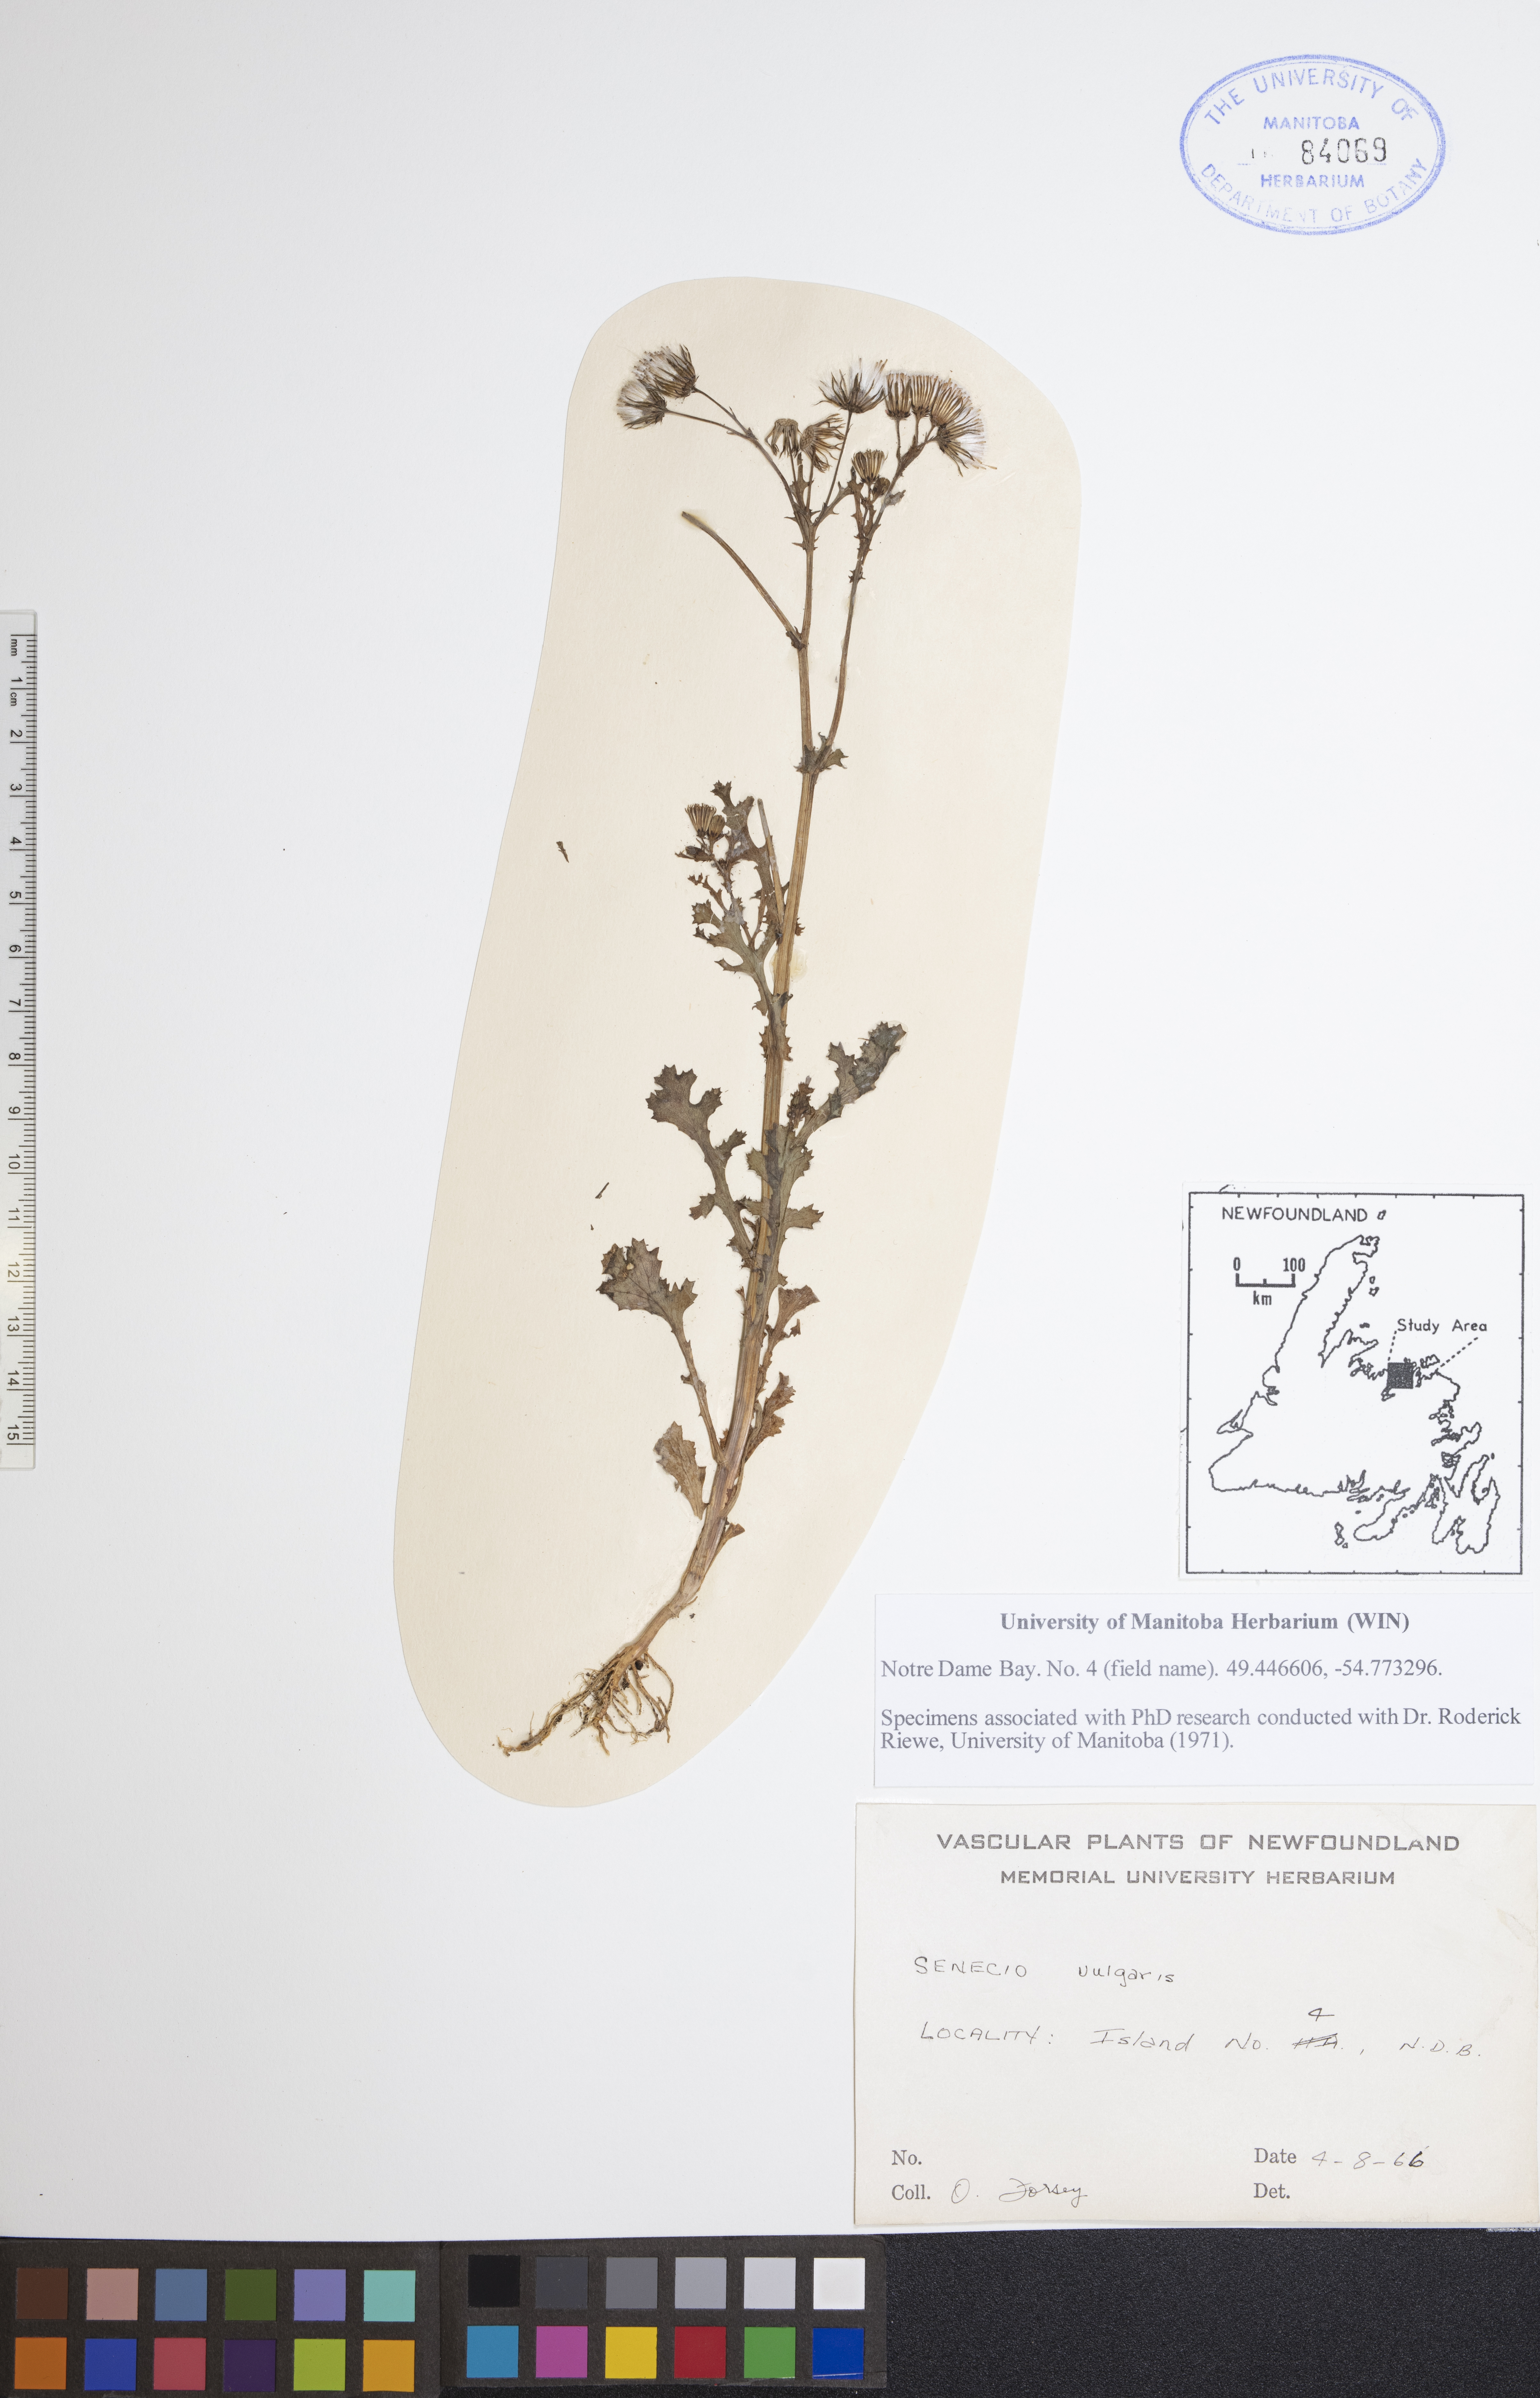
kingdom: Plantae
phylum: Tracheophyta
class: Magnoliopsida
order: Asterales
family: Asteraceae
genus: Senecio
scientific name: Senecio vulgaris
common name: Old-man-in-the-spring
